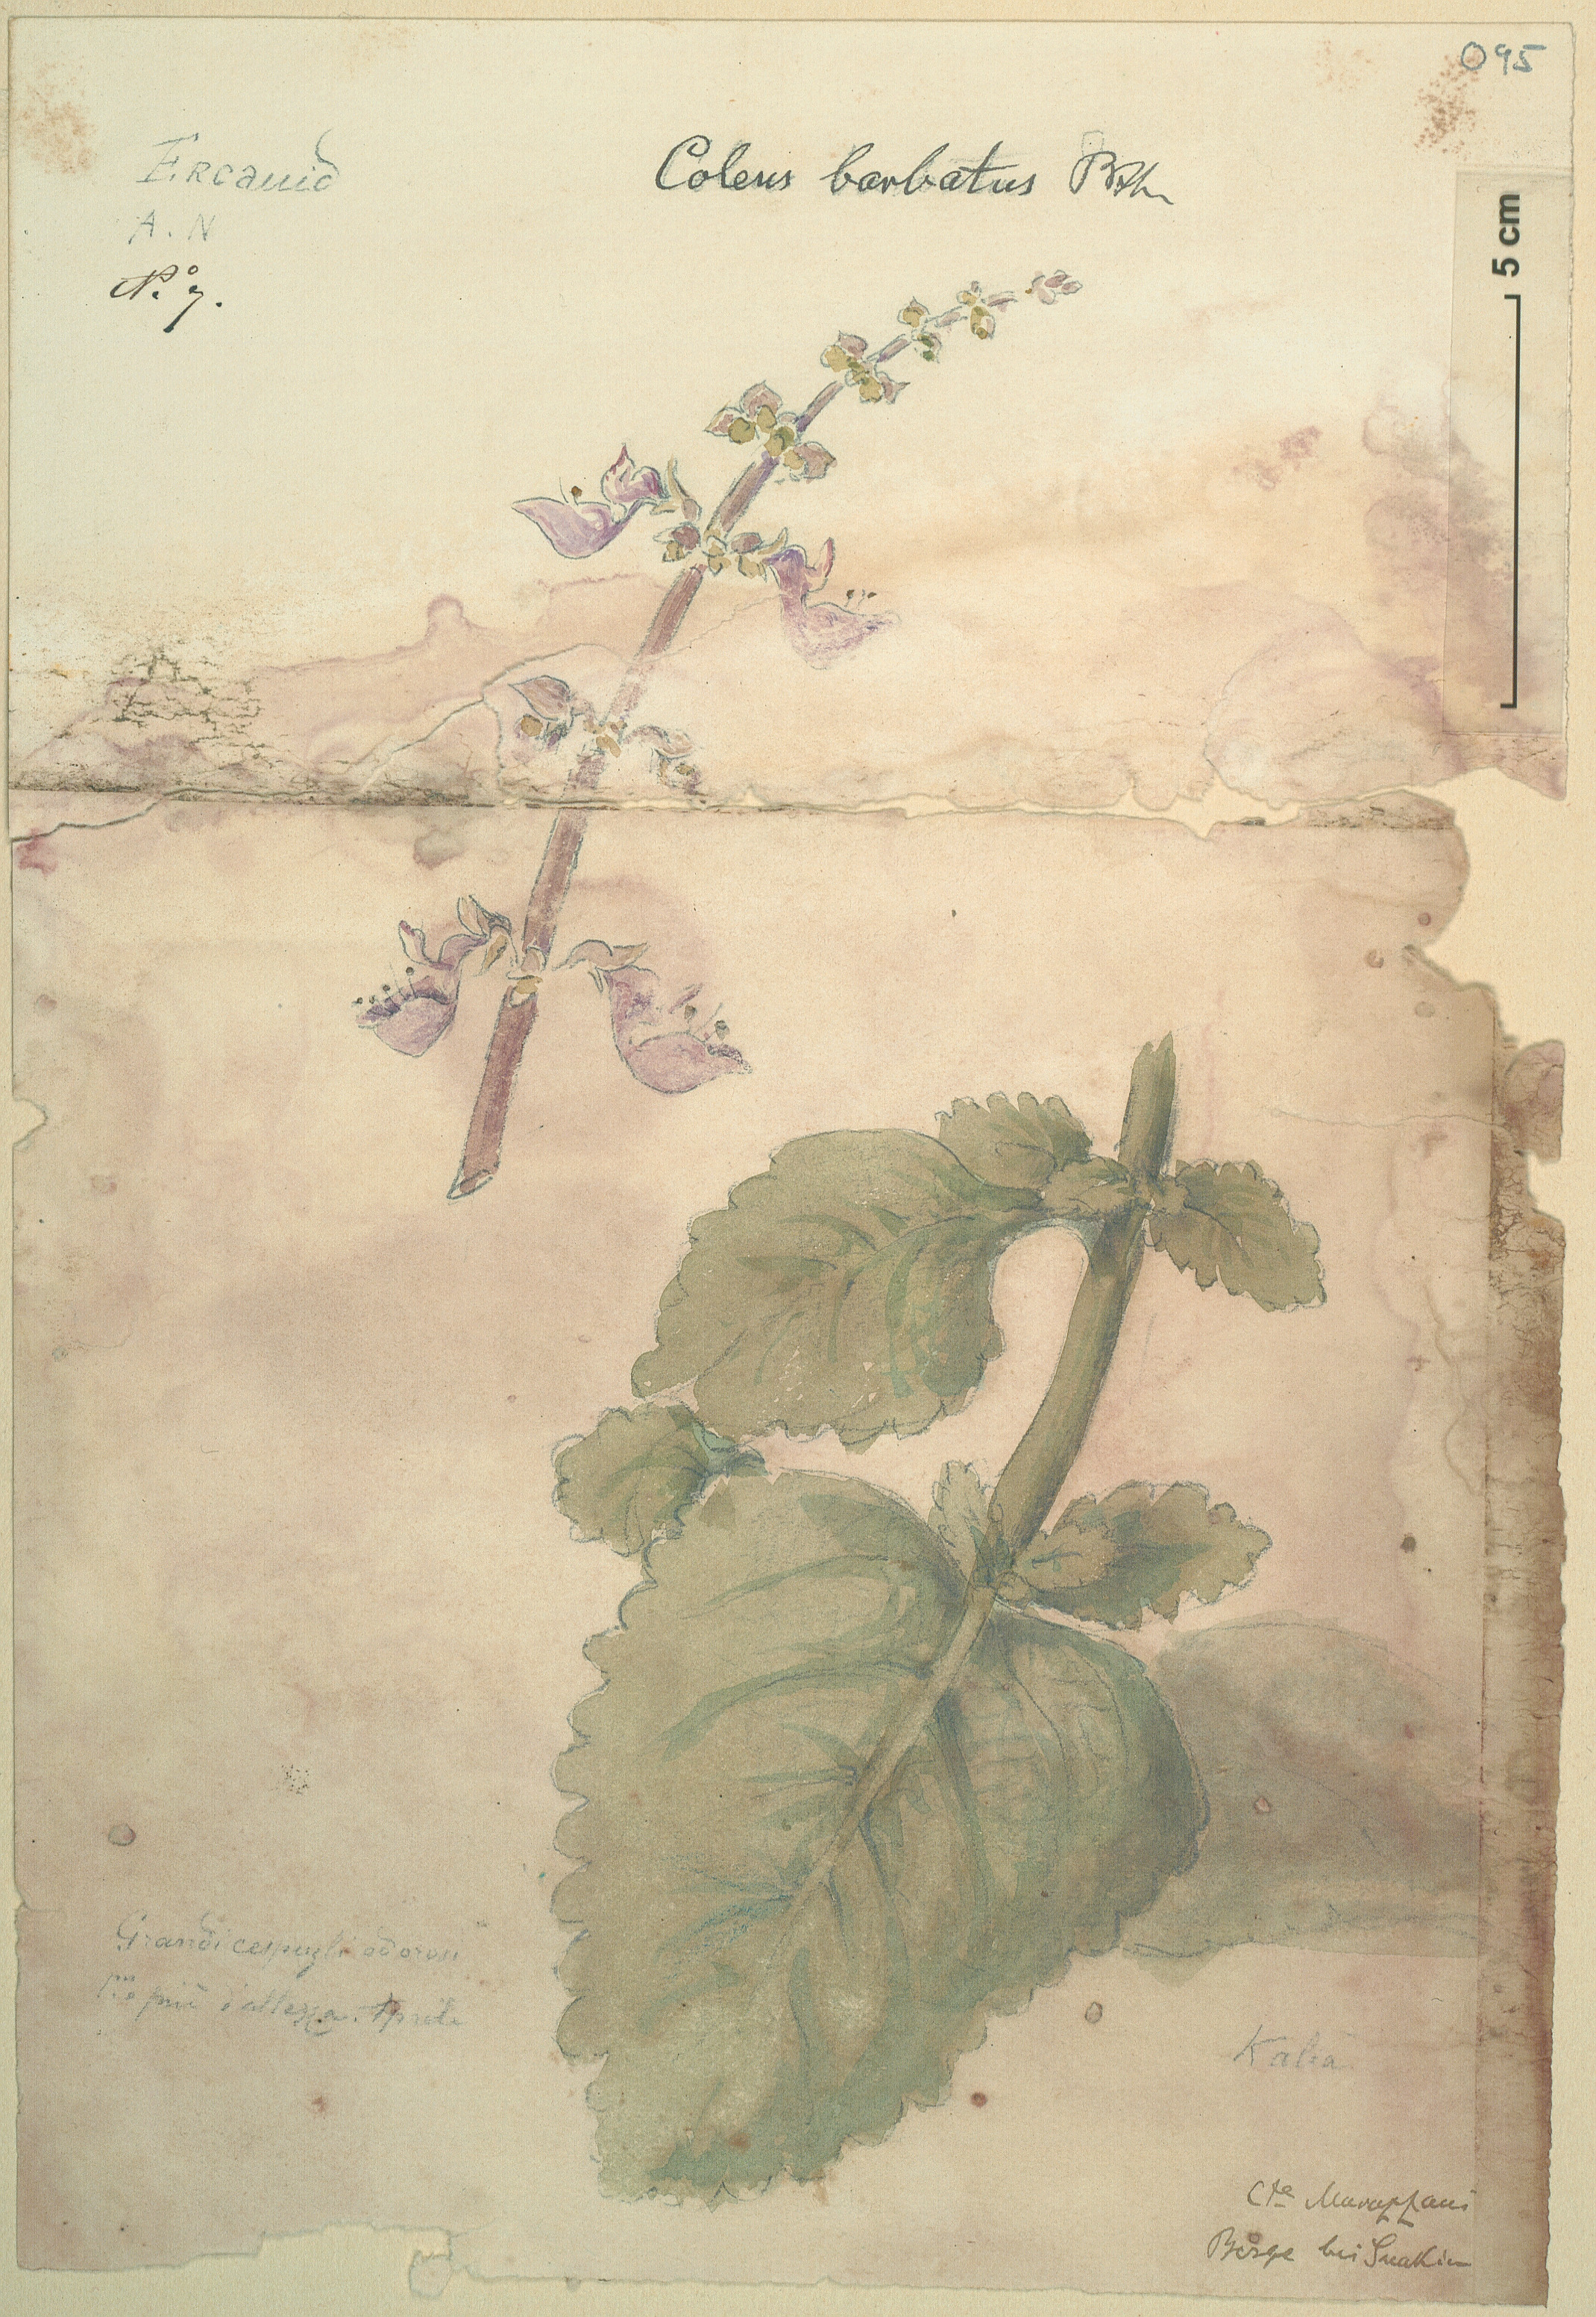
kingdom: Plantae
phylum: Tracheophyta
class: Magnoliopsida
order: Lamiales
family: Lamiaceae
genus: Coleus
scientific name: Coleus barbatus
